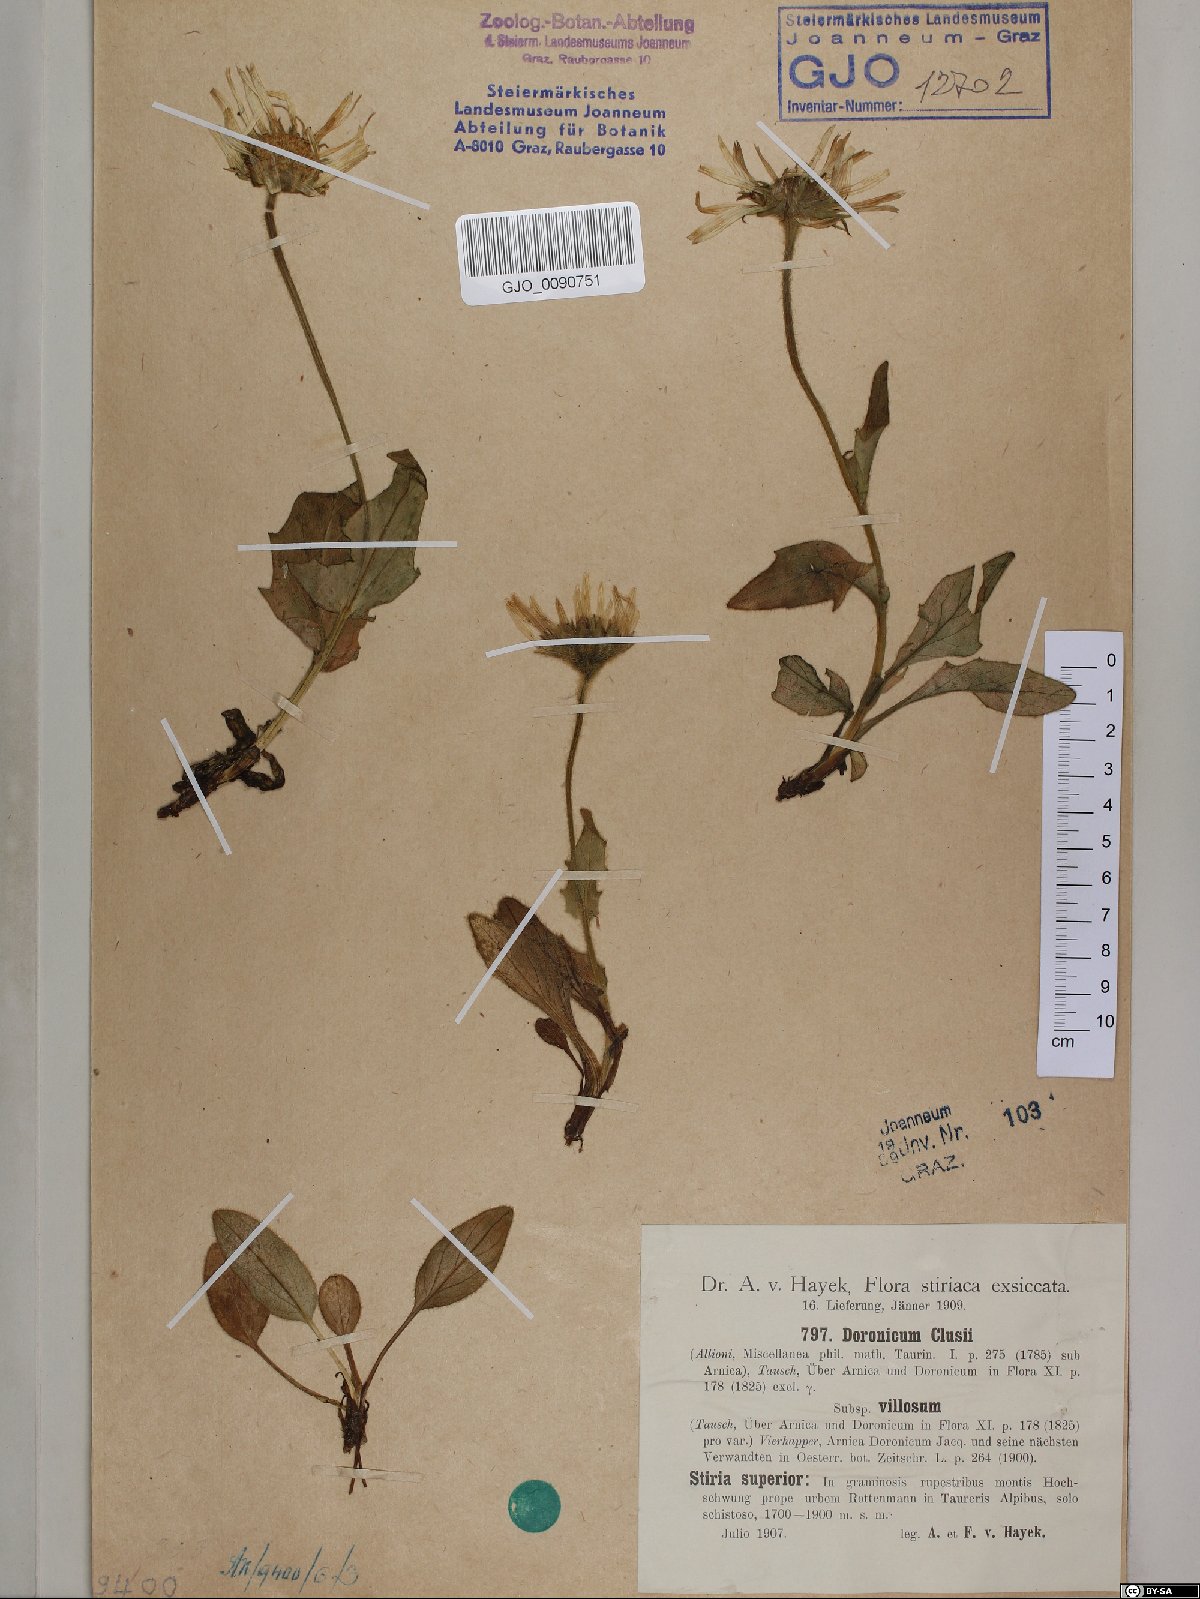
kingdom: Plantae
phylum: Tracheophyta
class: Magnoliopsida
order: Asterales
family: Asteraceae
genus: Doronicum
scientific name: Doronicum clusii
